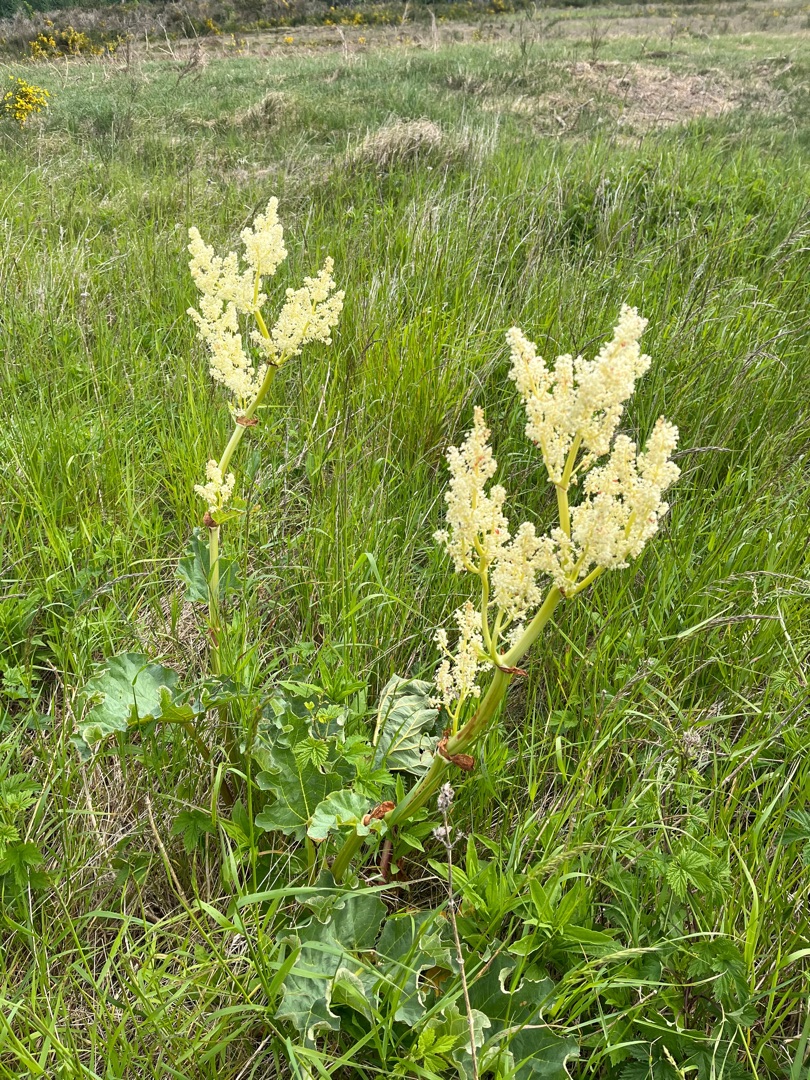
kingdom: Plantae
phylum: Tracheophyta
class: Magnoliopsida
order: Caryophyllales
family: Polygonaceae
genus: Rheum
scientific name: Rheum rhabarbarum
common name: Rabarber
